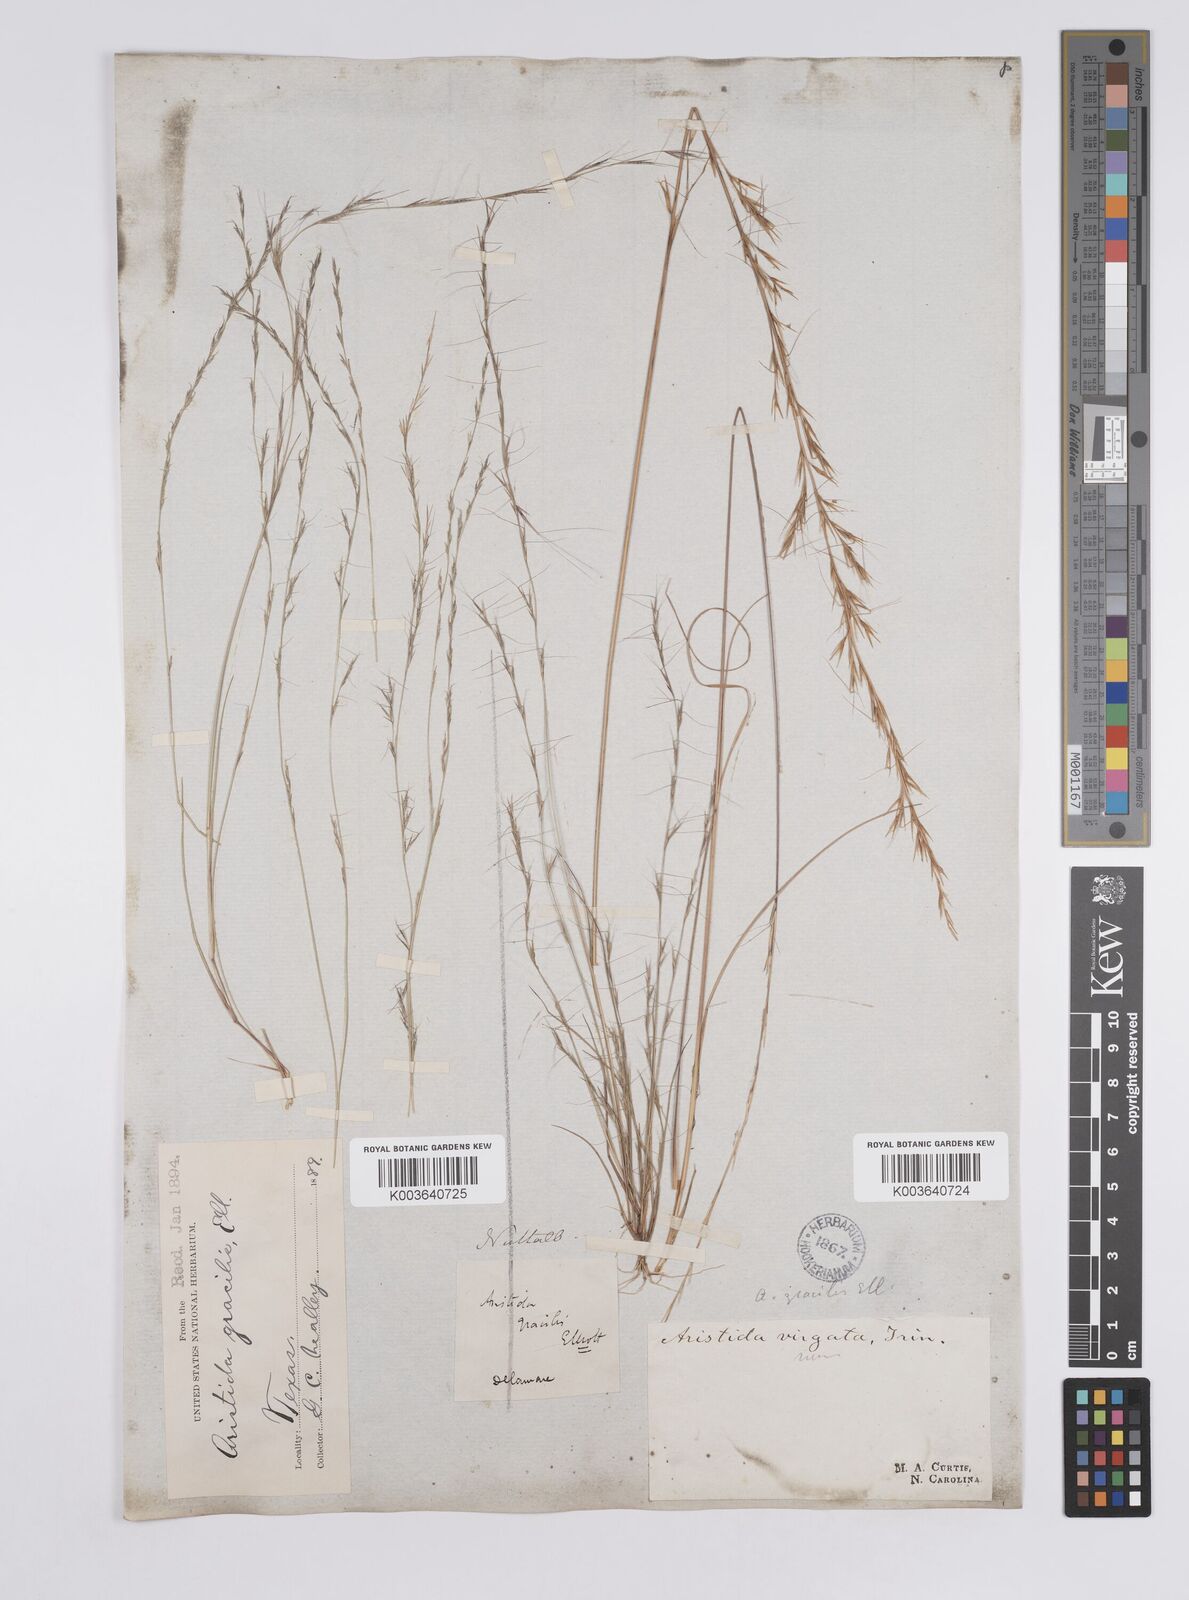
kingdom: Plantae
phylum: Tracheophyta
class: Liliopsida
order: Poales
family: Poaceae
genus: Aristida
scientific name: Aristida longespica
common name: Long-spiked triple-awned grass
